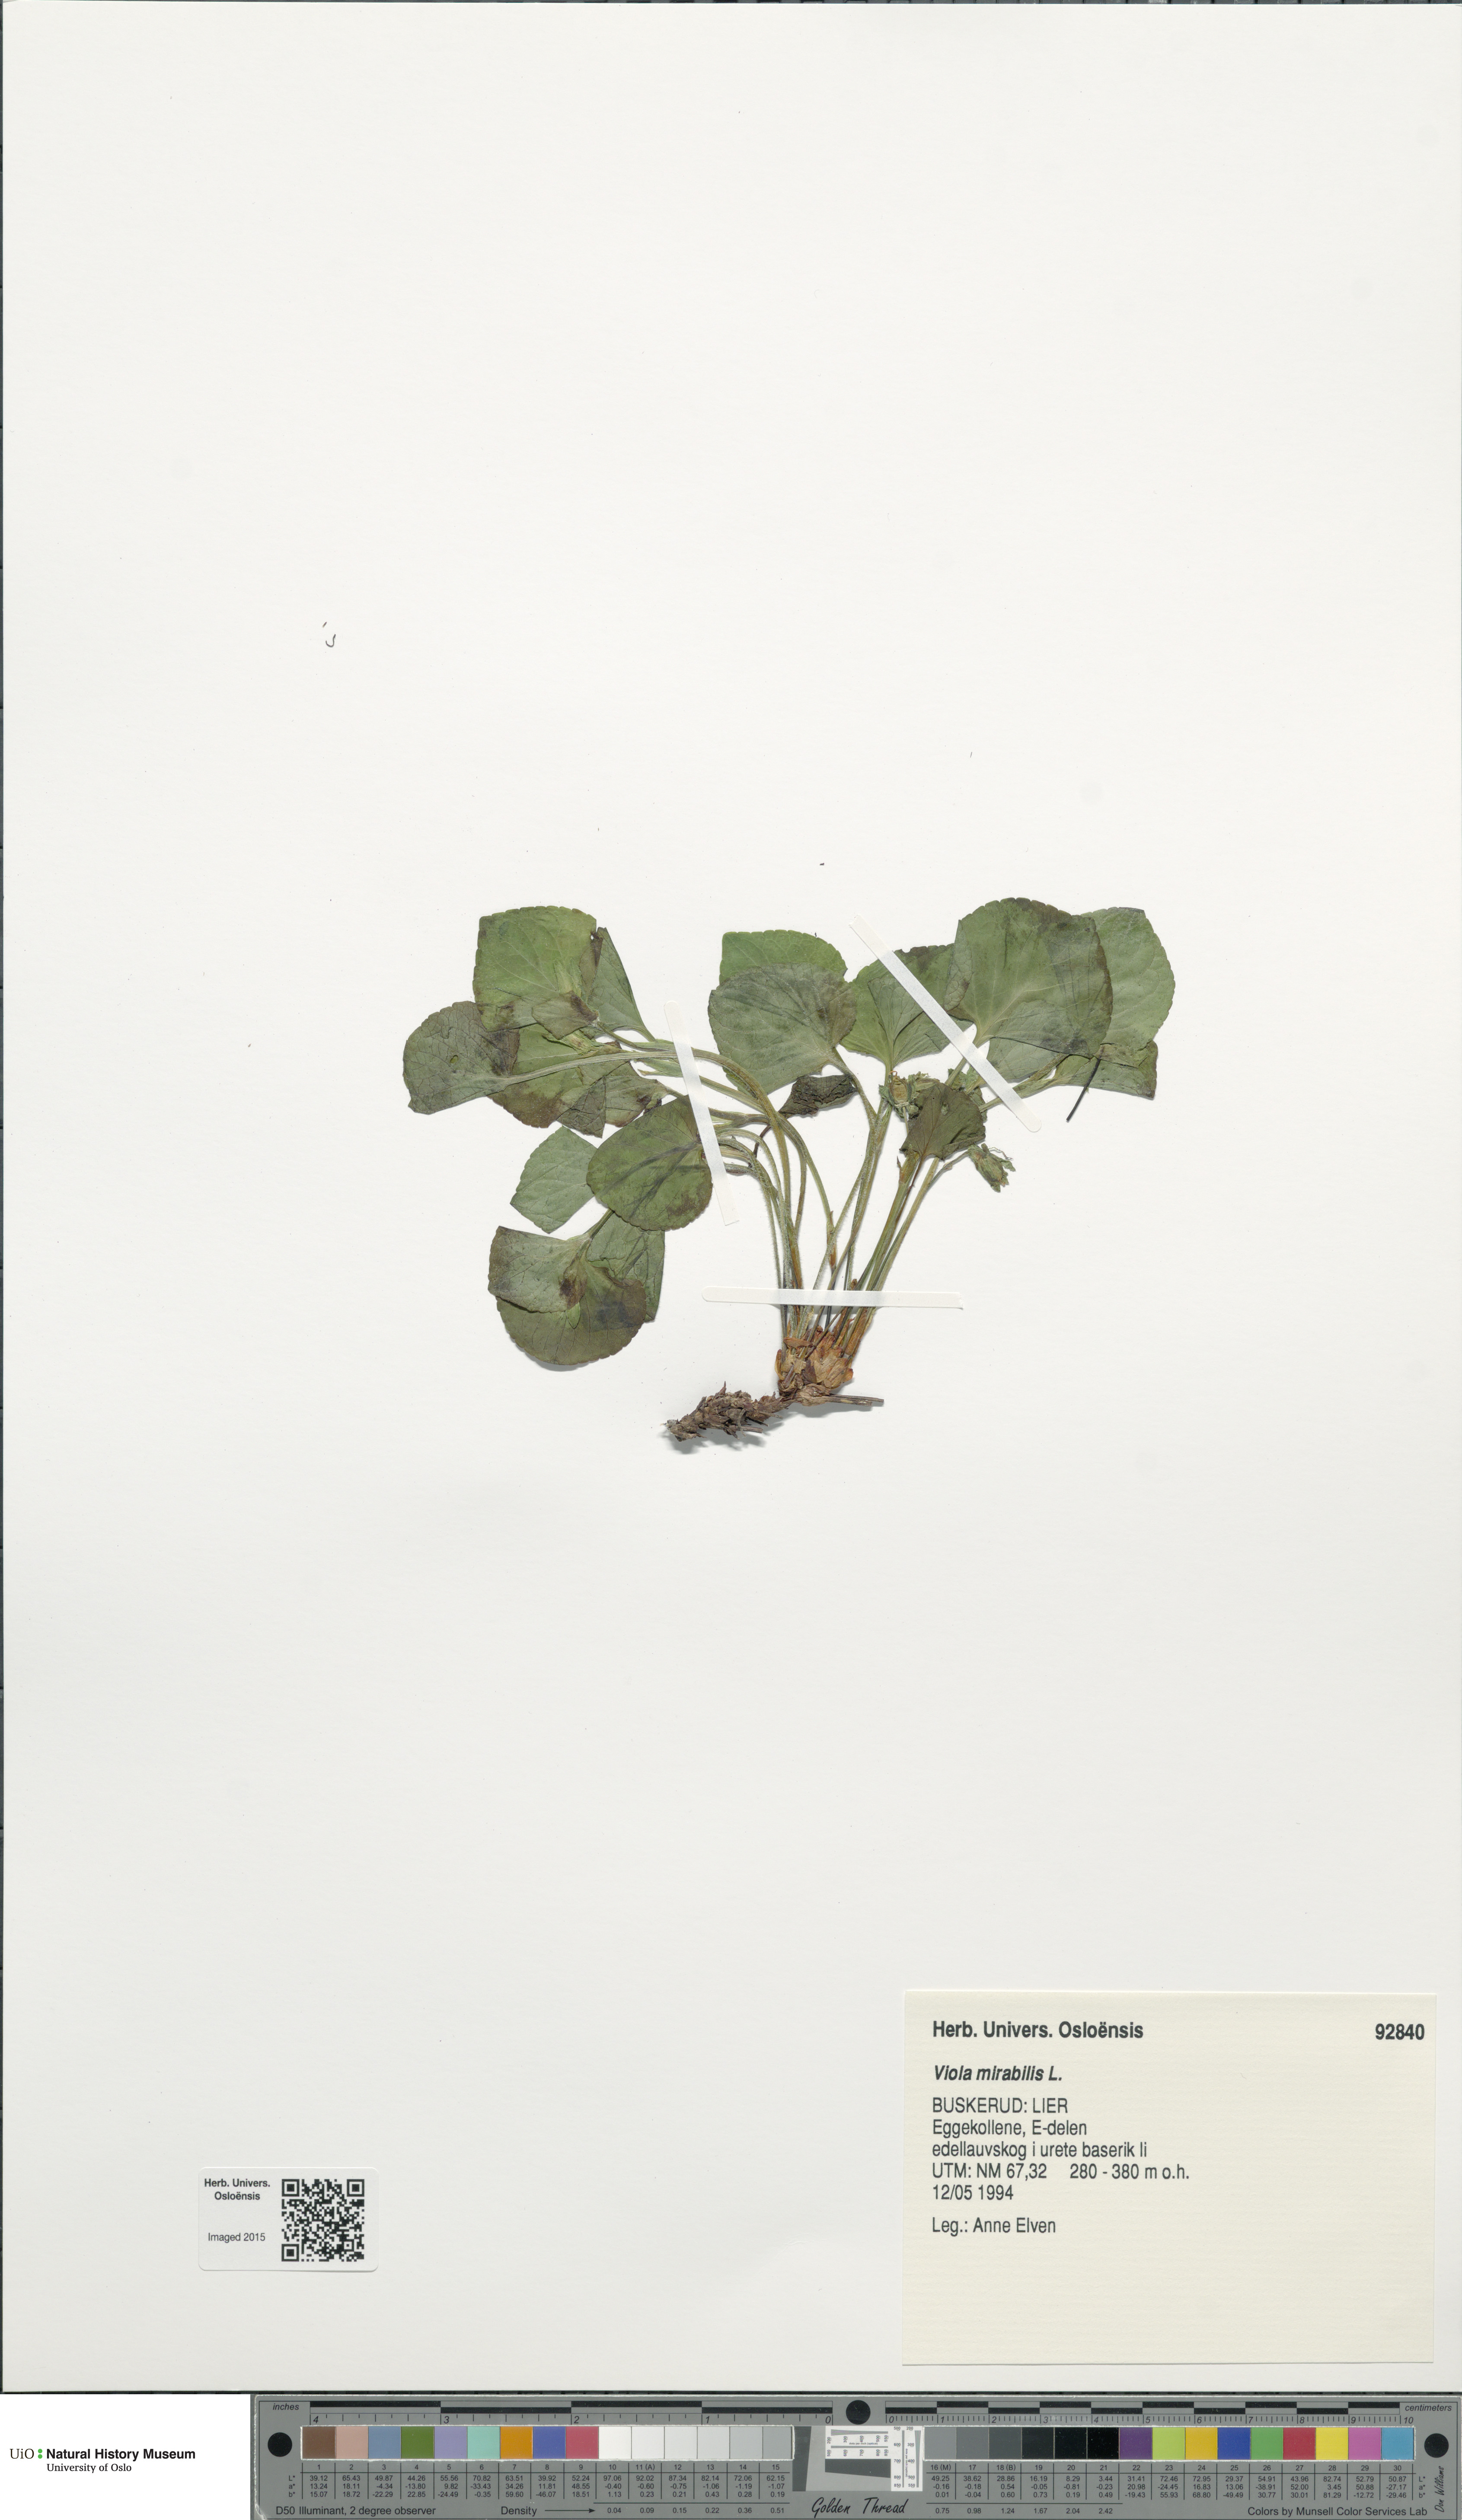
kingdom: Plantae
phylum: Tracheophyta
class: Magnoliopsida
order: Malpighiales
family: Violaceae
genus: Viola
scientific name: Viola mirabilis
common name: Wonder violet
